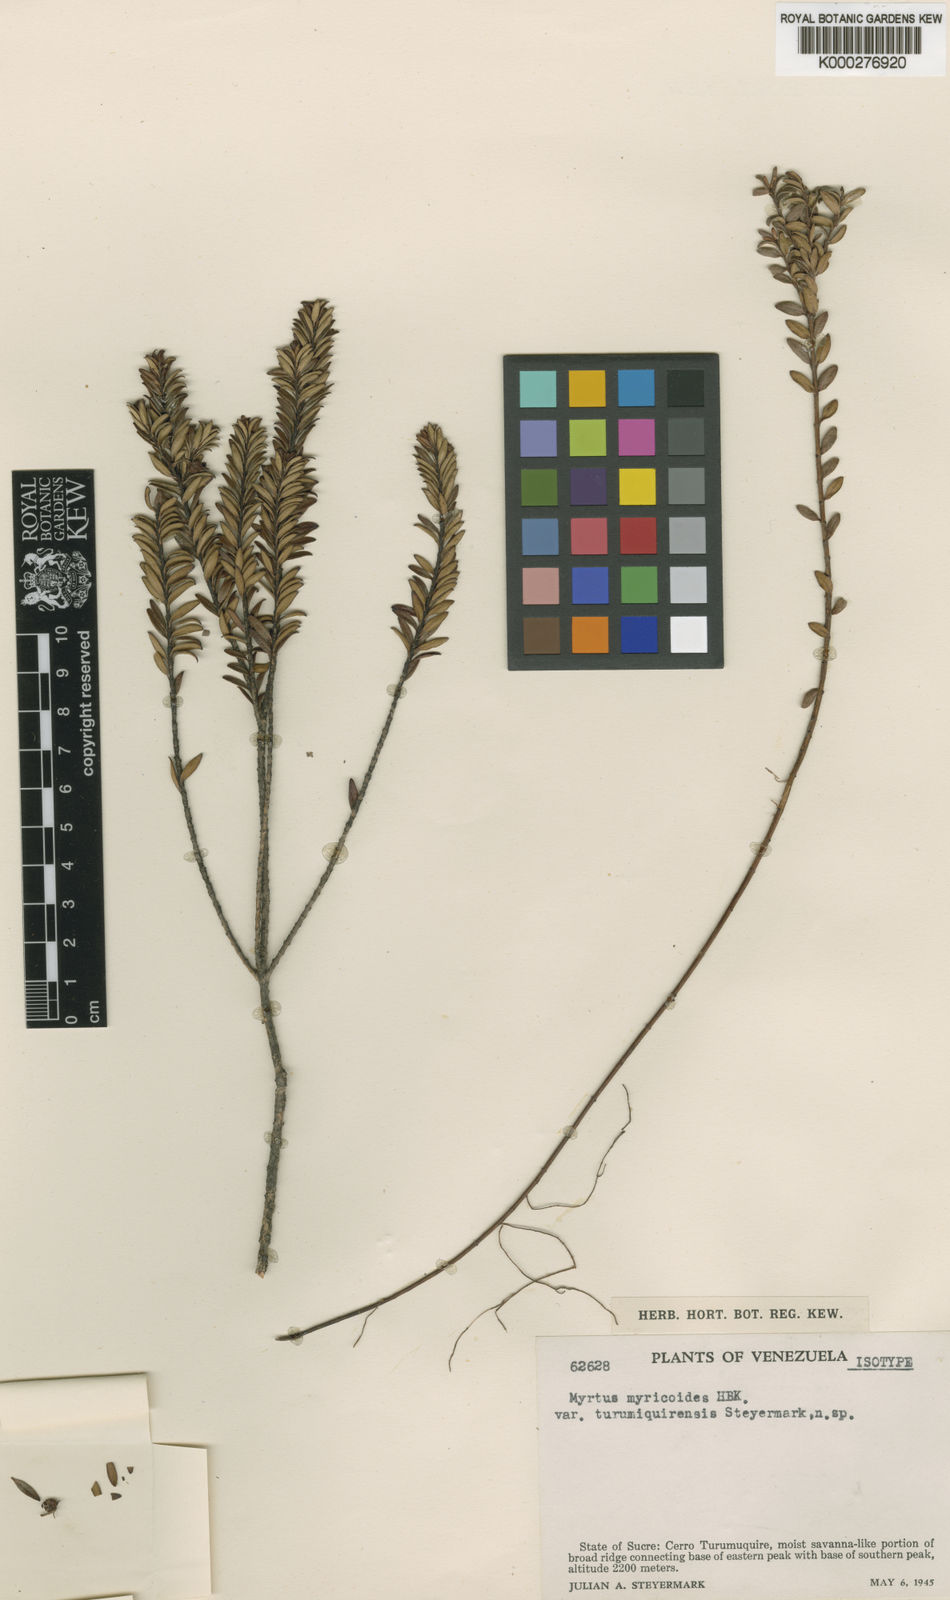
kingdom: Plantae
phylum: Tracheophyta
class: Magnoliopsida
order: Myrtales
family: Myrtaceae
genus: Ugni
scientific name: Ugni myricoides
